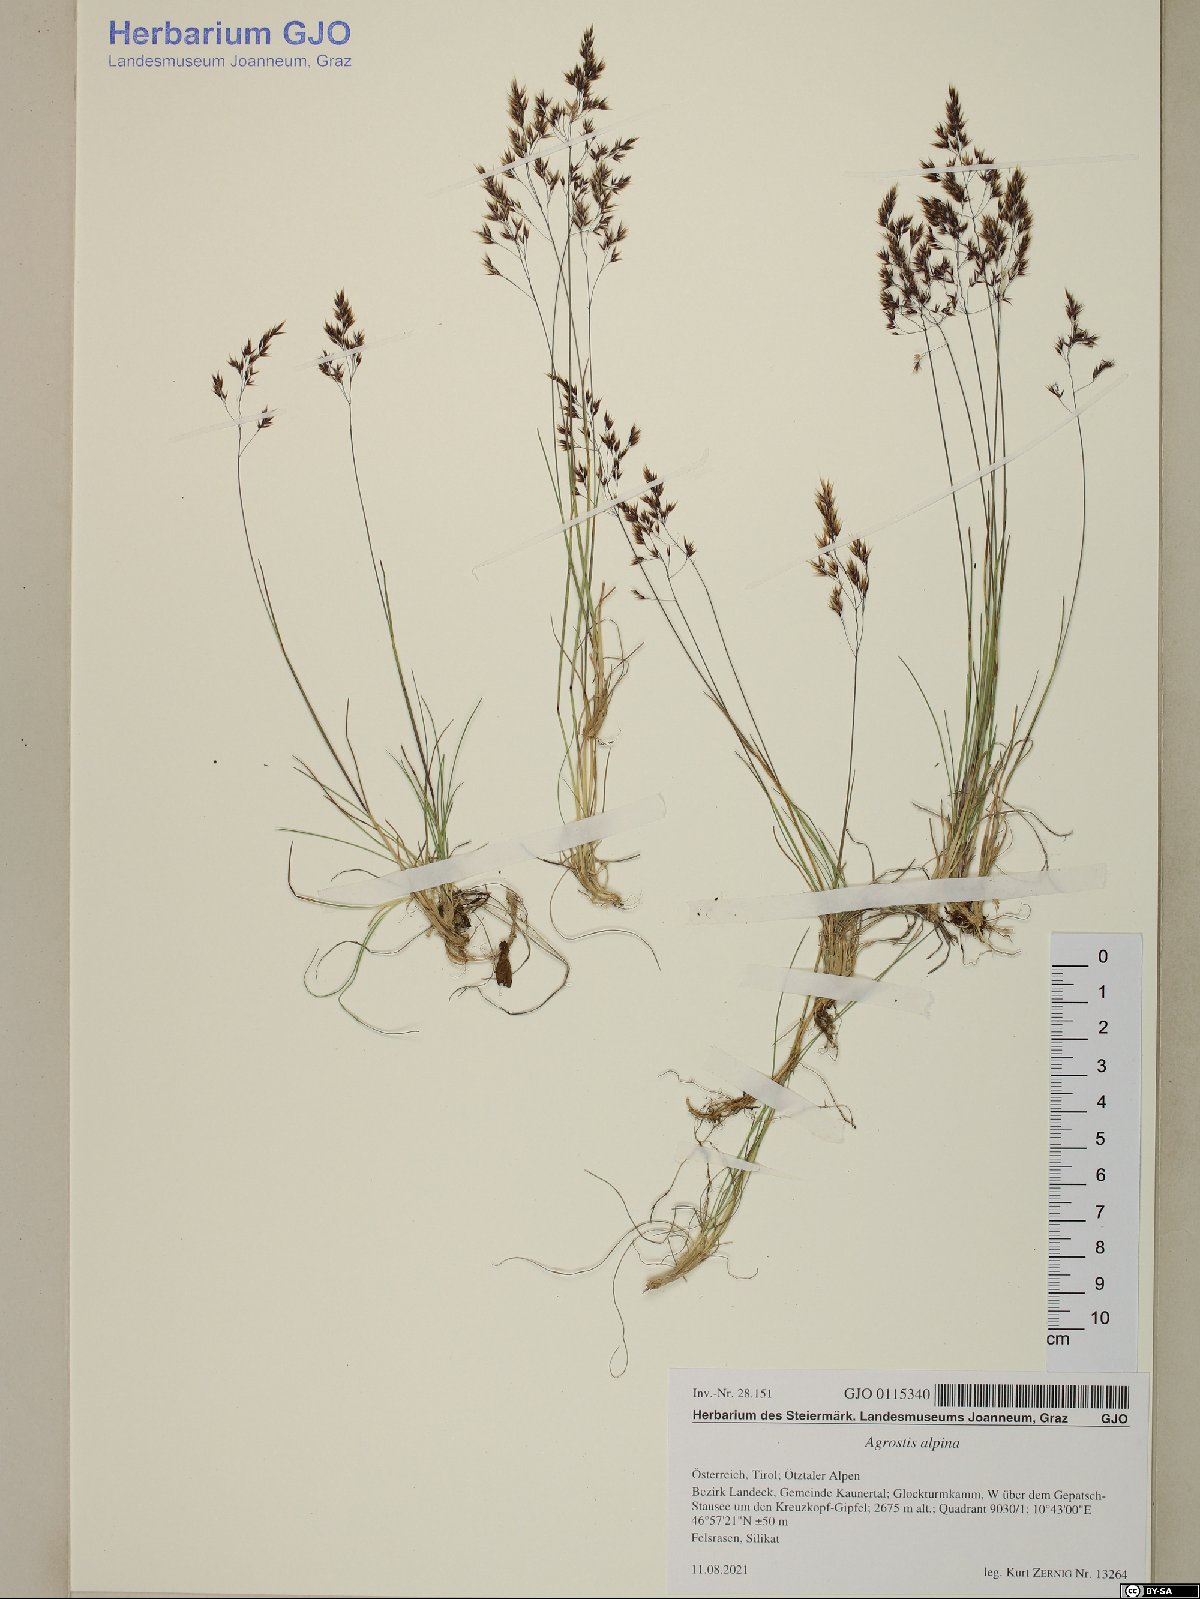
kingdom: Plantae
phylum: Tracheophyta
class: Liliopsida
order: Poales
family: Poaceae
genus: Alpagrostis
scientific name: Alpagrostis alpina
